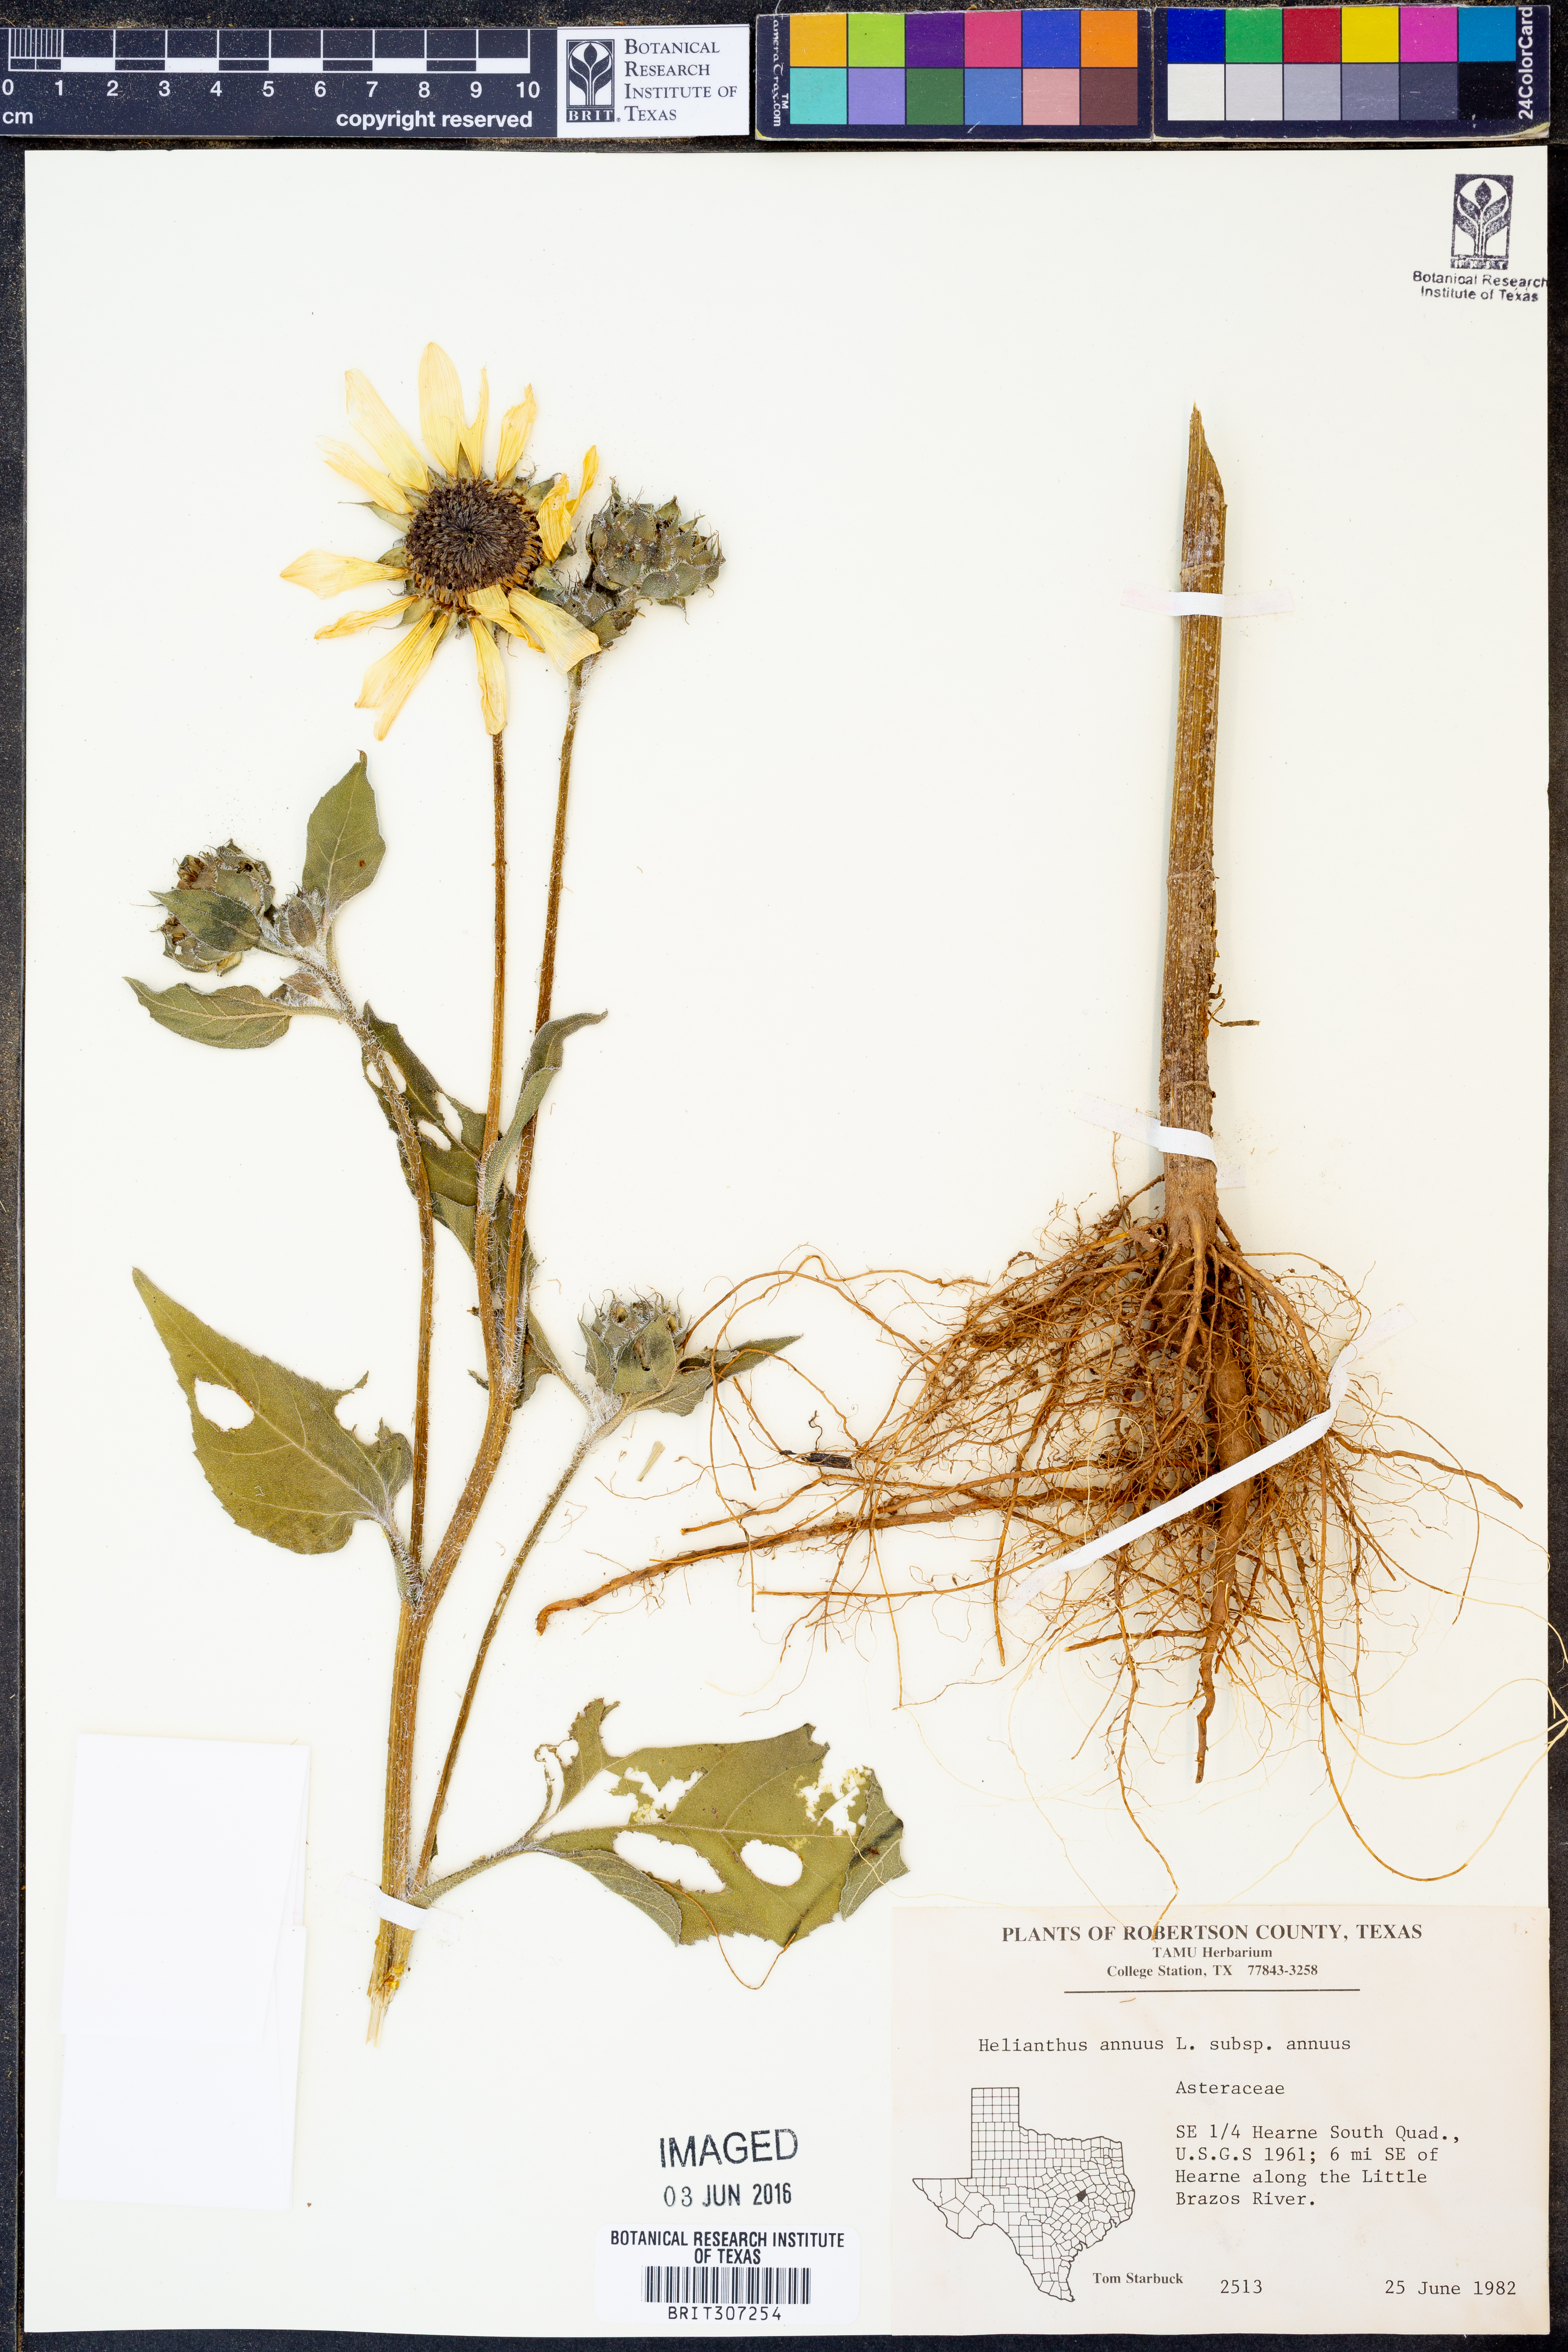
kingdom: Plantae
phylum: Tracheophyta
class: Magnoliopsida
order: Asterales
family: Asteraceae
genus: Helianthus
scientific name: Helianthus annuus
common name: Sunflower
